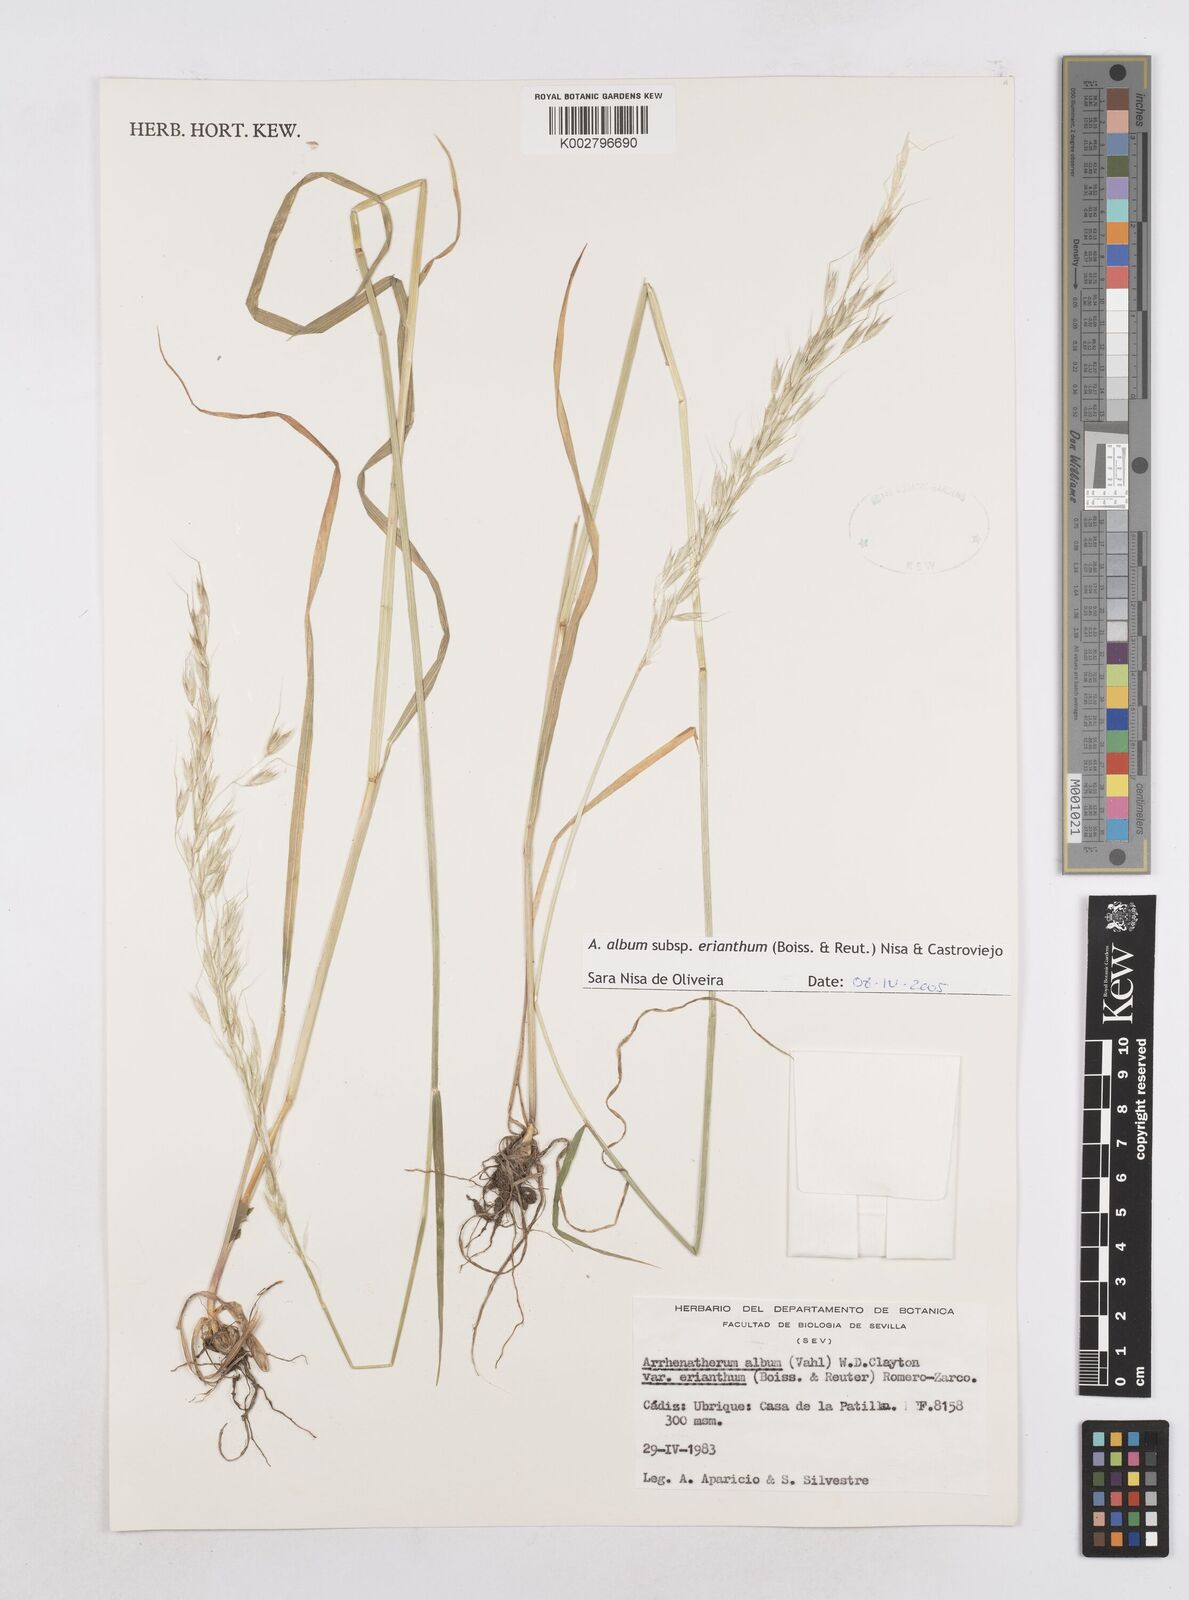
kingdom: Plantae
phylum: Tracheophyta
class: Liliopsida
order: Poales
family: Poaceae
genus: Arrhenatherum
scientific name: Arrhenatherum album
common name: Tall oat grass
